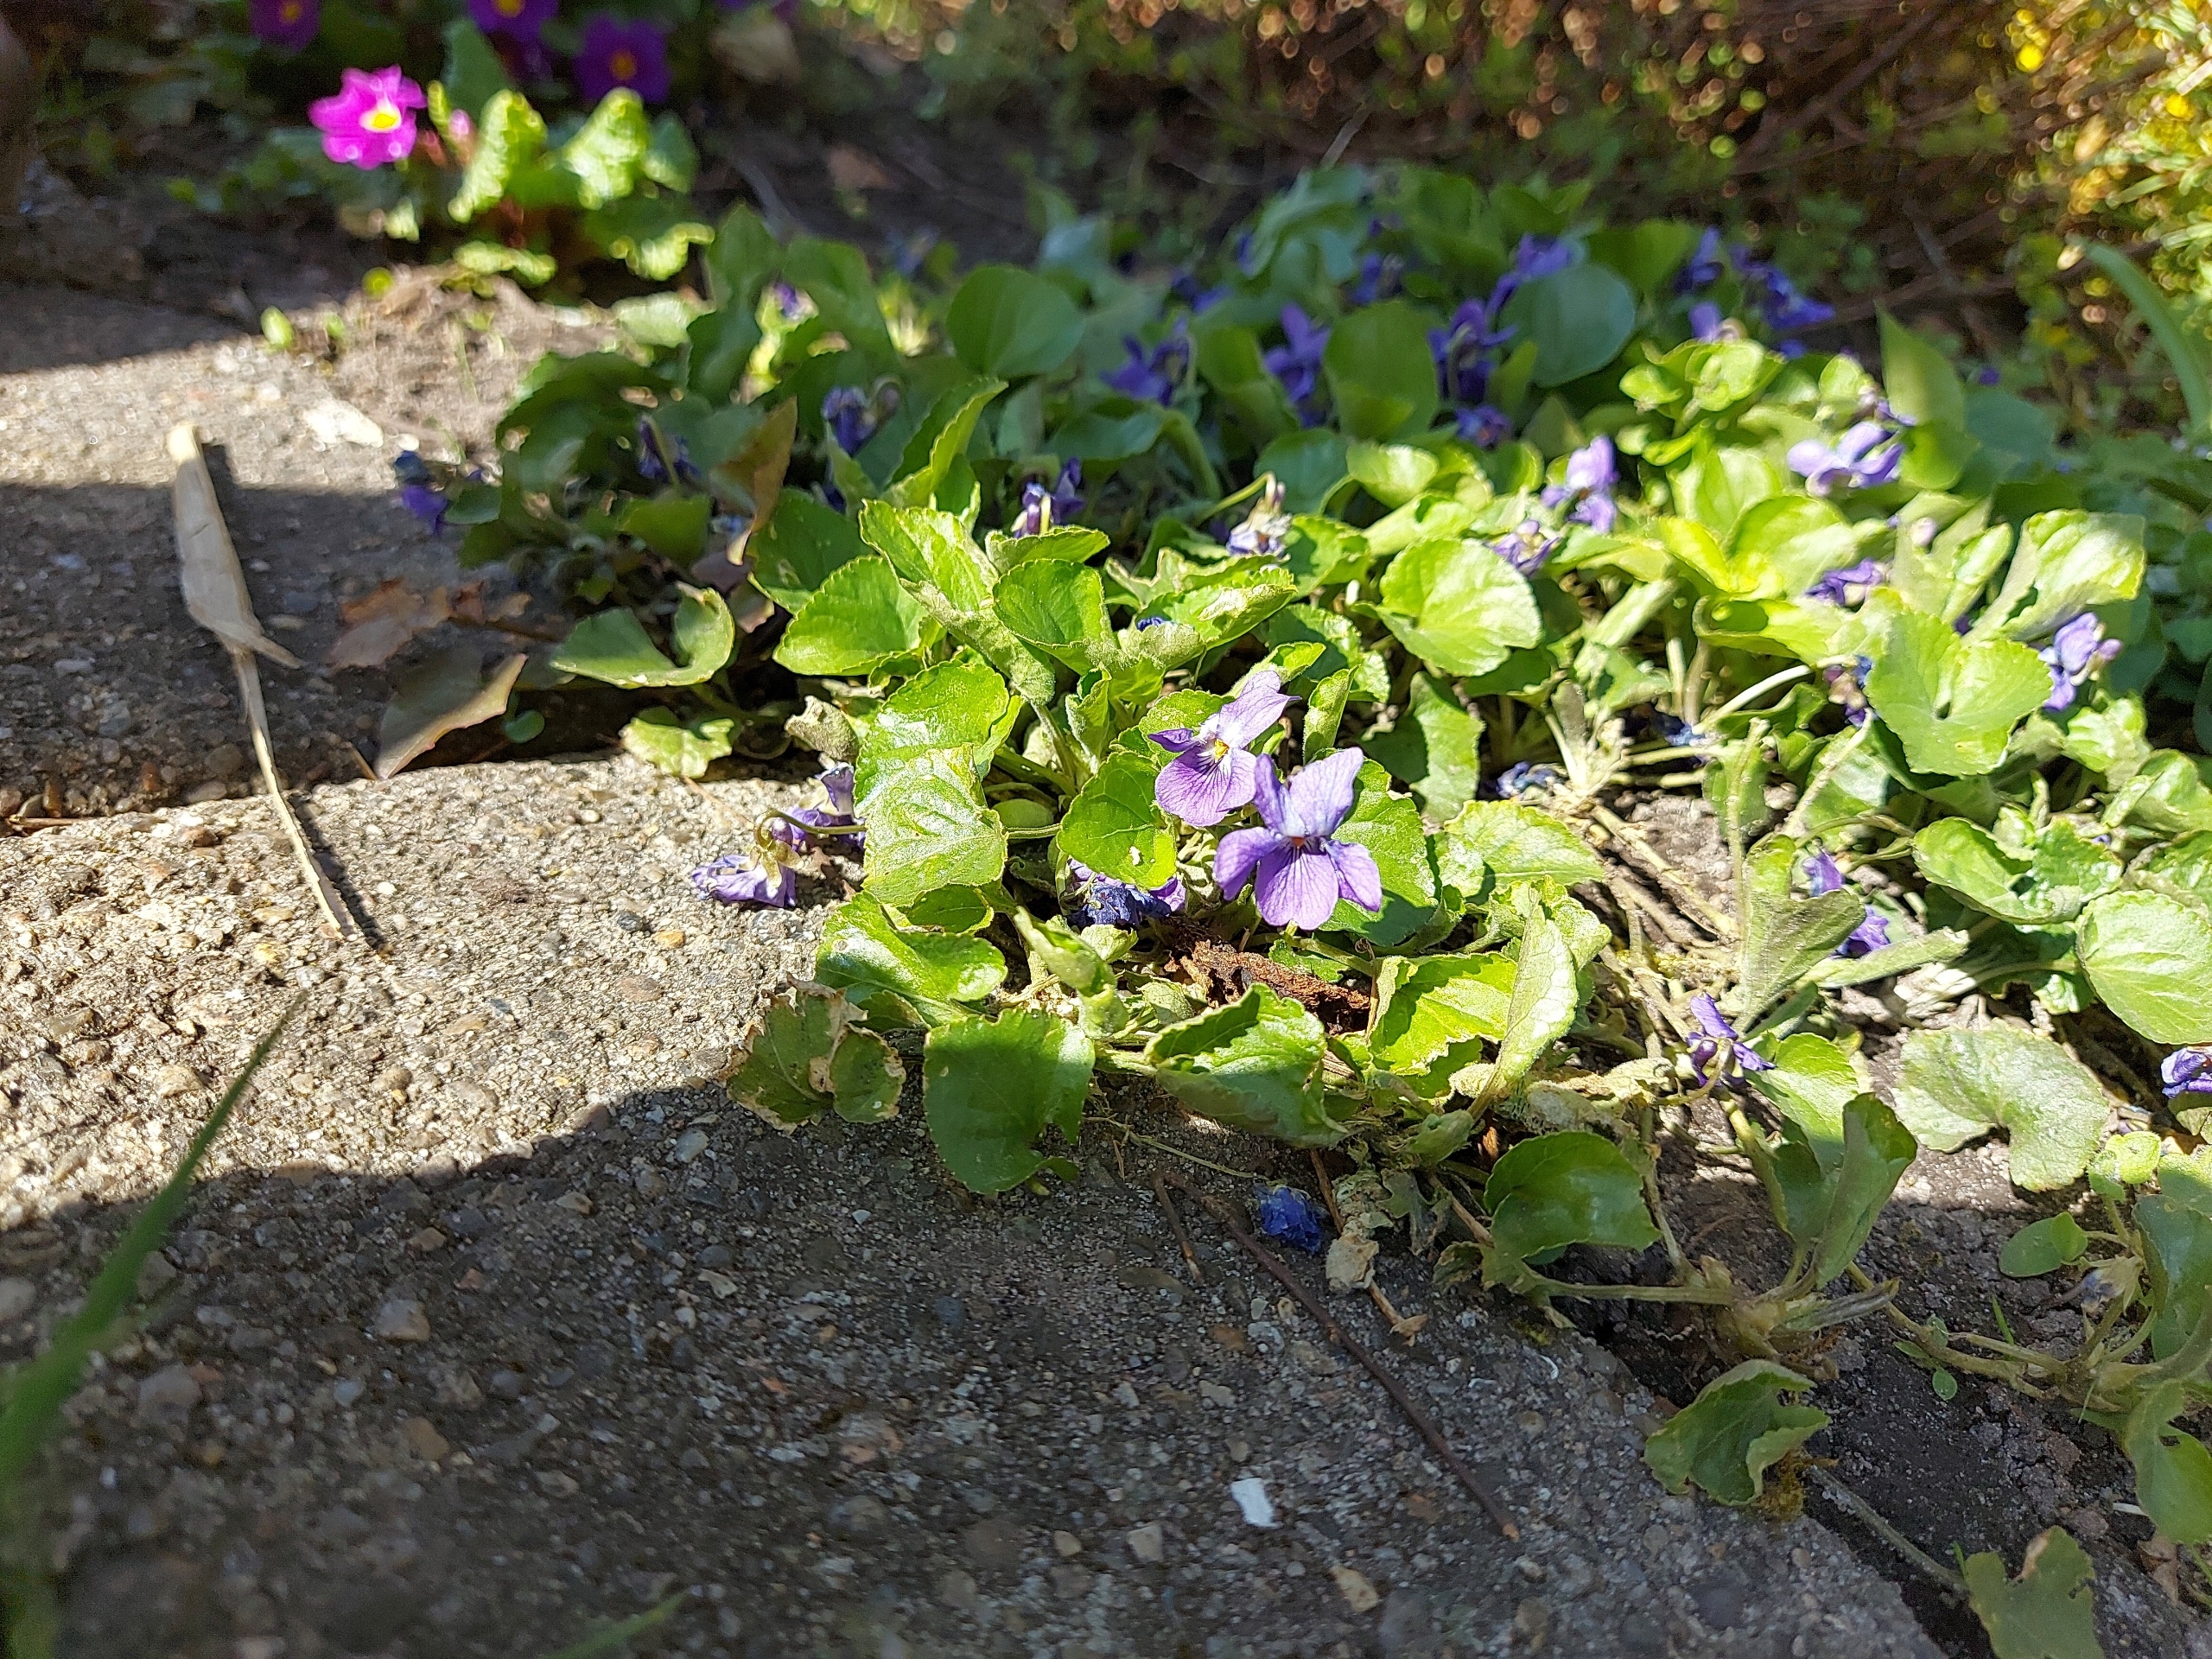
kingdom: Plantae
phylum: Tracheophyta
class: Magnoliopsida
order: Malpighiales
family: Violaceae
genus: Viola
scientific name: Viola odorata
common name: Marts-viol
